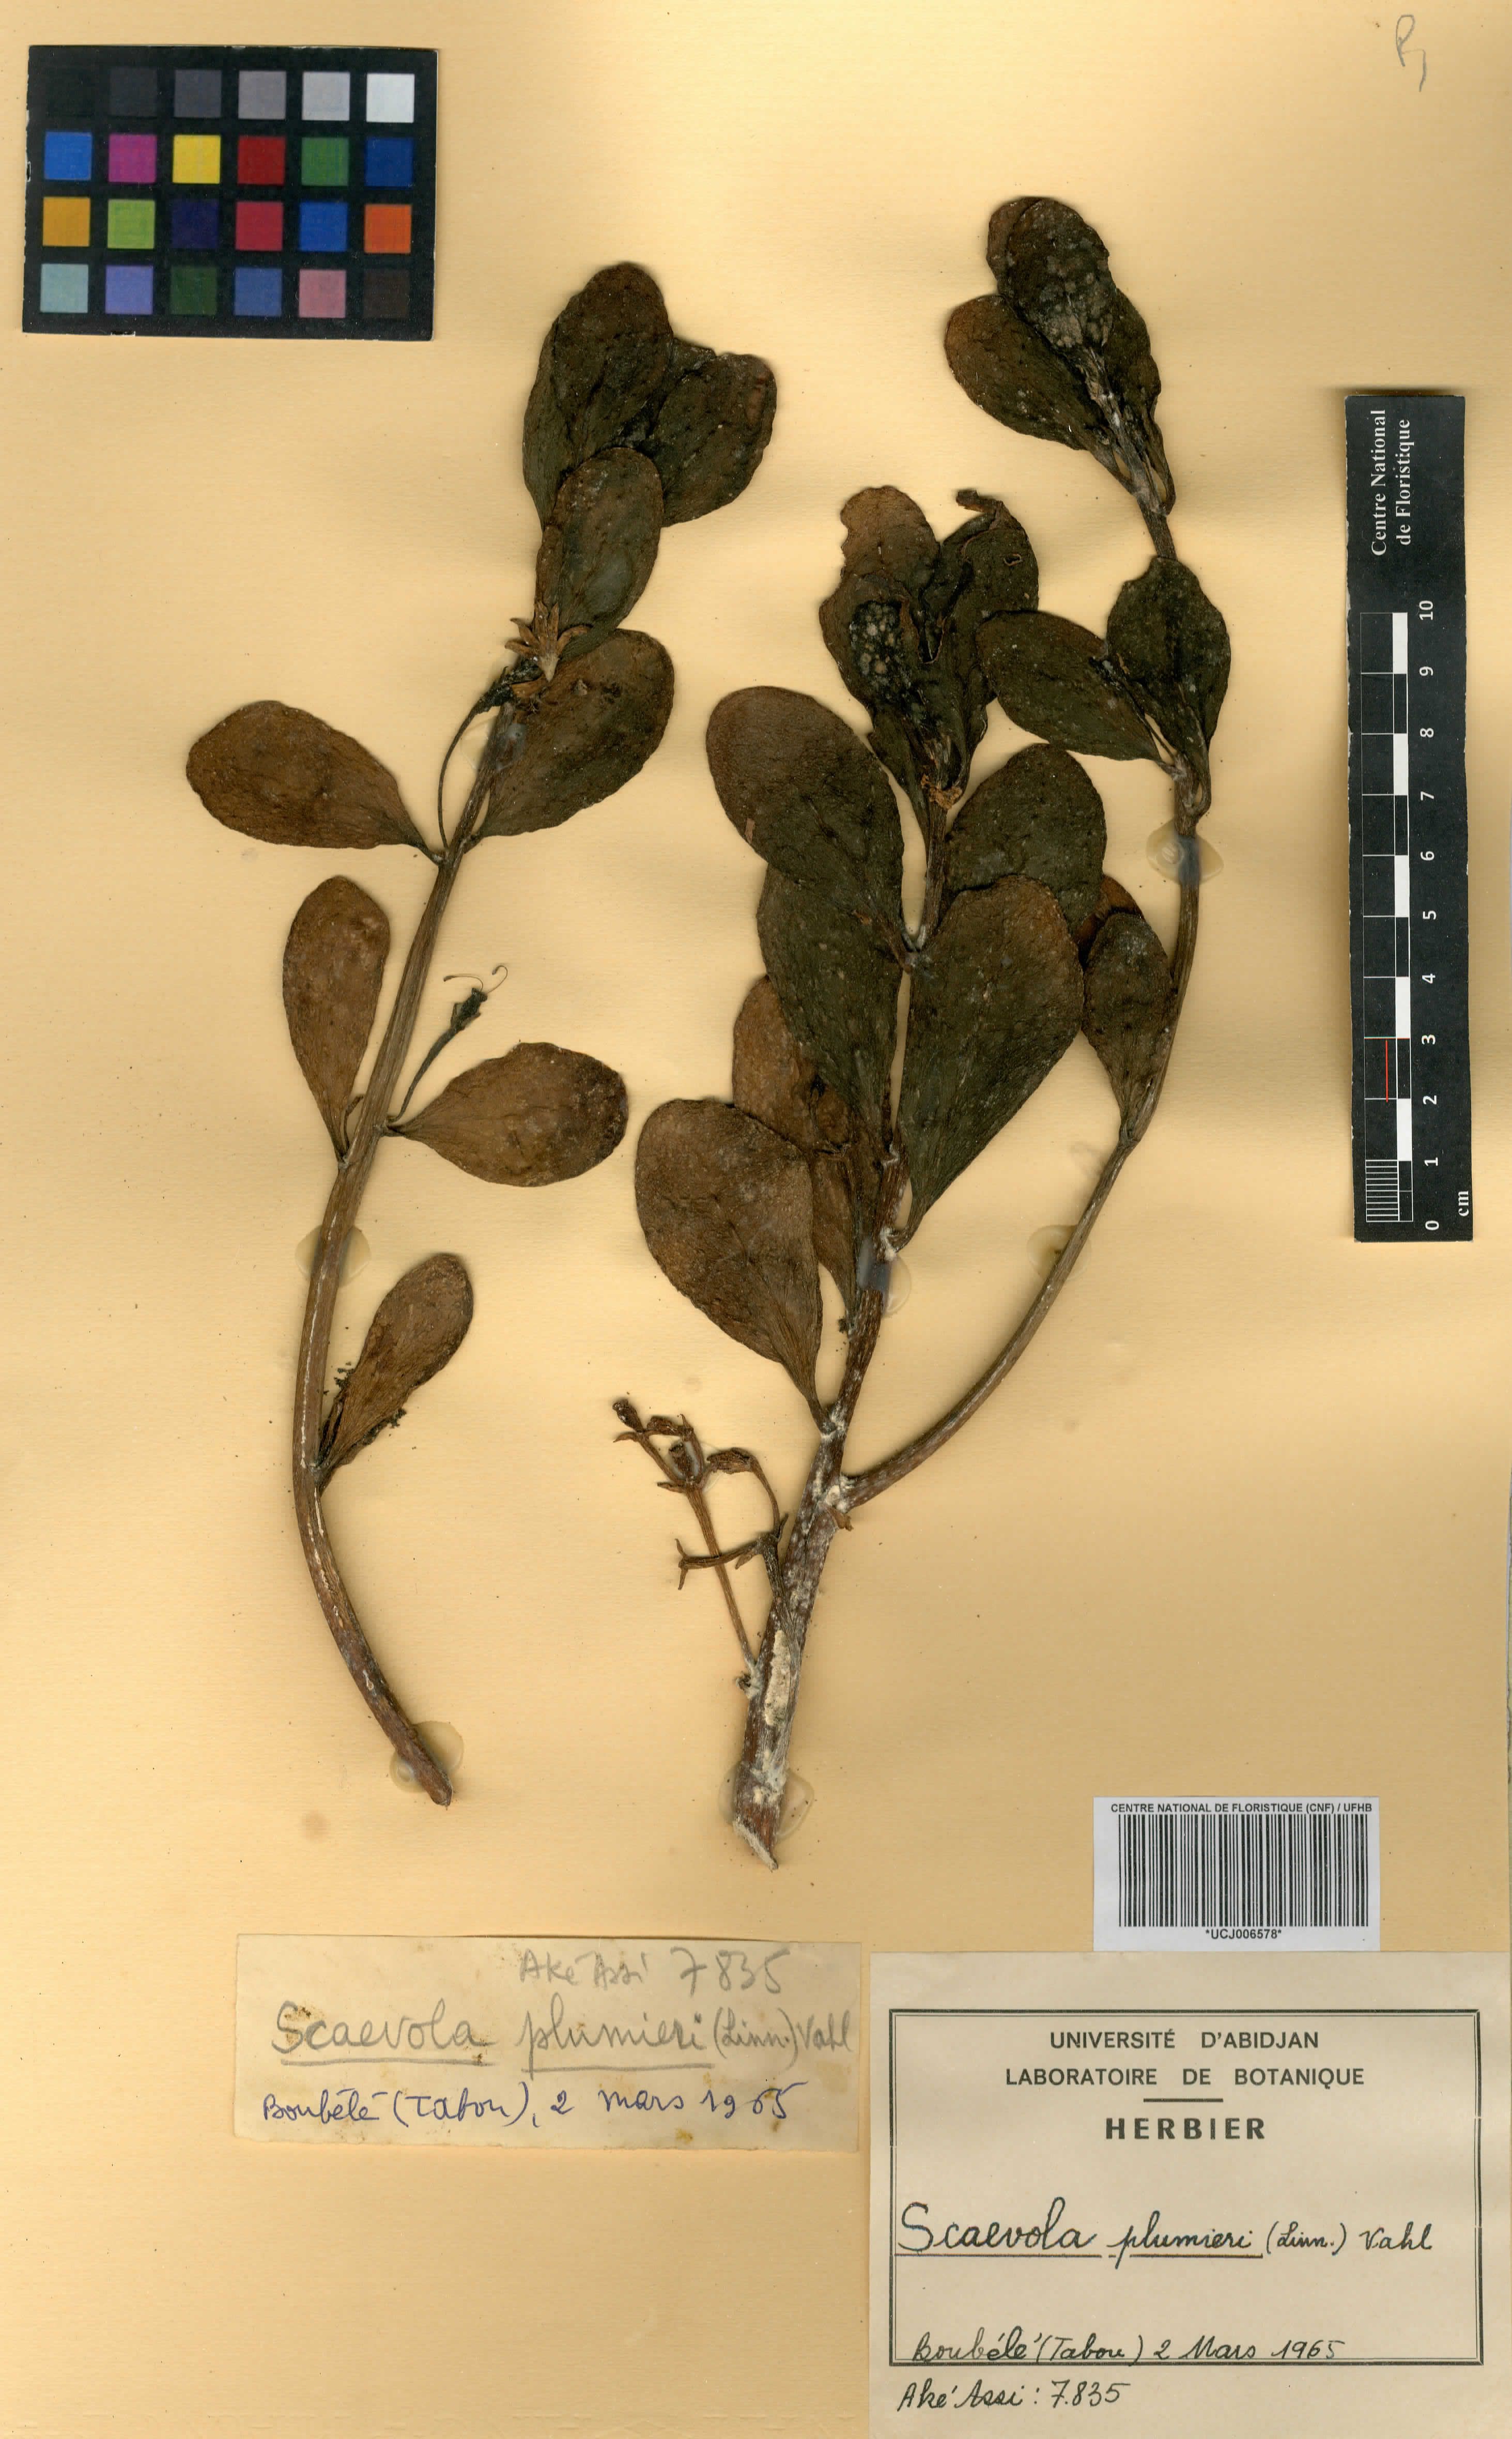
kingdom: Plantae
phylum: Tracheophyta
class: Magnoliopsida
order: Asterales
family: Goodeniaceae
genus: Scaevola
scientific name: Scaevola plumieri
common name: Gull feed
